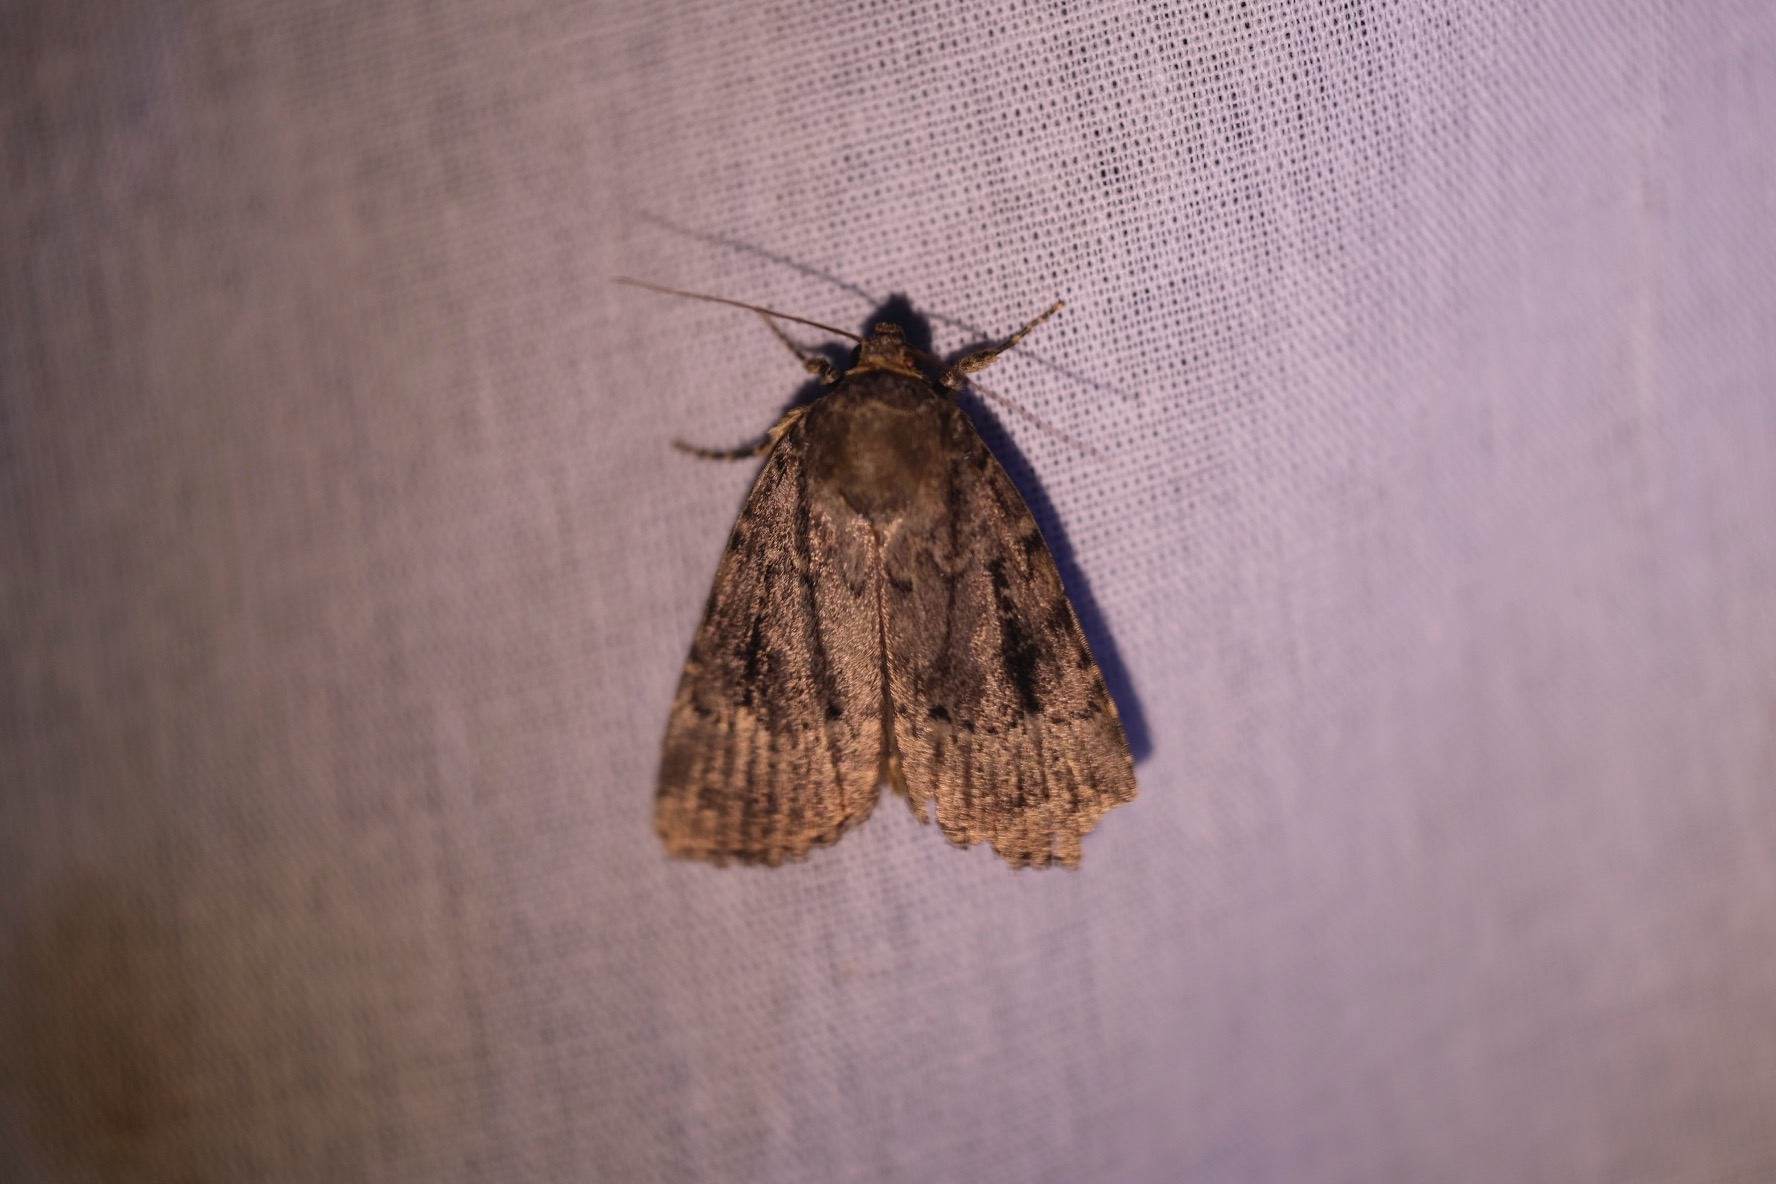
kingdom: Animalia
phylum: Arthropoda
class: Insecta
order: Lepidoptera
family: Noctuidae
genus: Amphipyra
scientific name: Amphipyra pyramidea
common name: Pyramideugle
